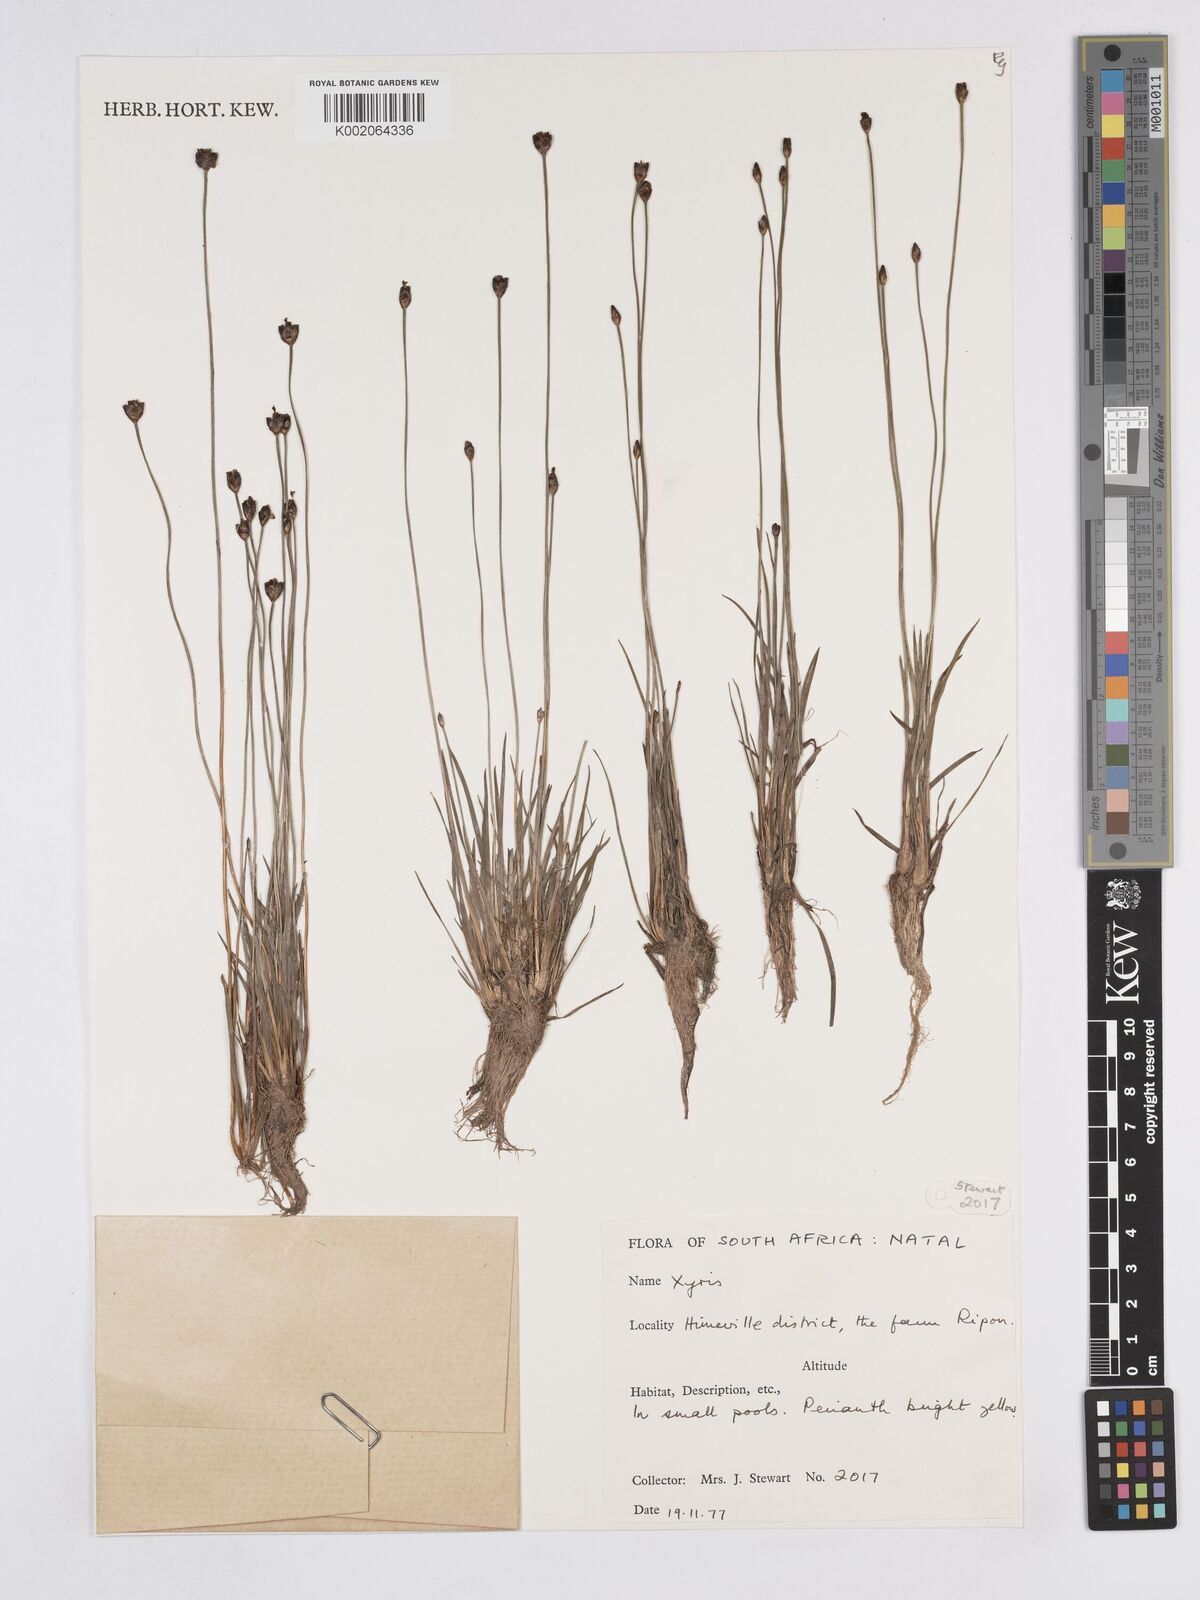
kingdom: Plantae
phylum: Tracheophyta
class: Liliopsida
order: Poales
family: Xyridaceae
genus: Xyris
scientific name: Xyris
